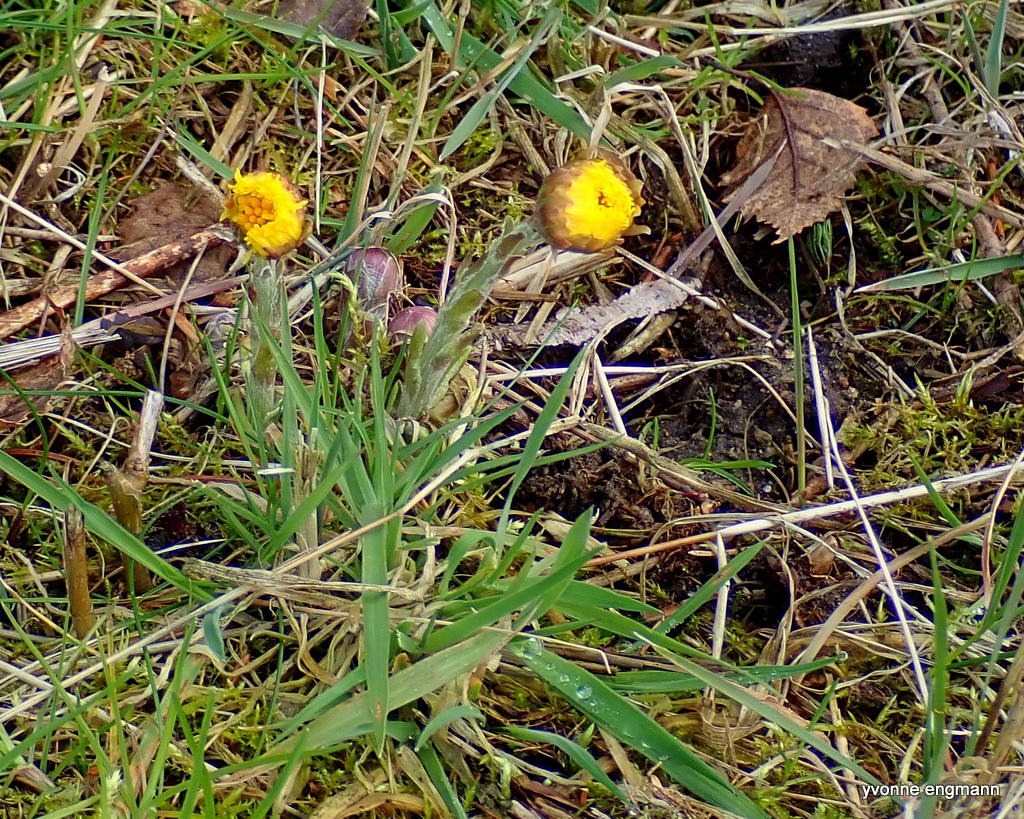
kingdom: Plantae
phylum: Tracheophyta
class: Magnoliopsida
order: Asterales
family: Asteraceae
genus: Tussilago
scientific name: Tussilago farfara
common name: Følfod
